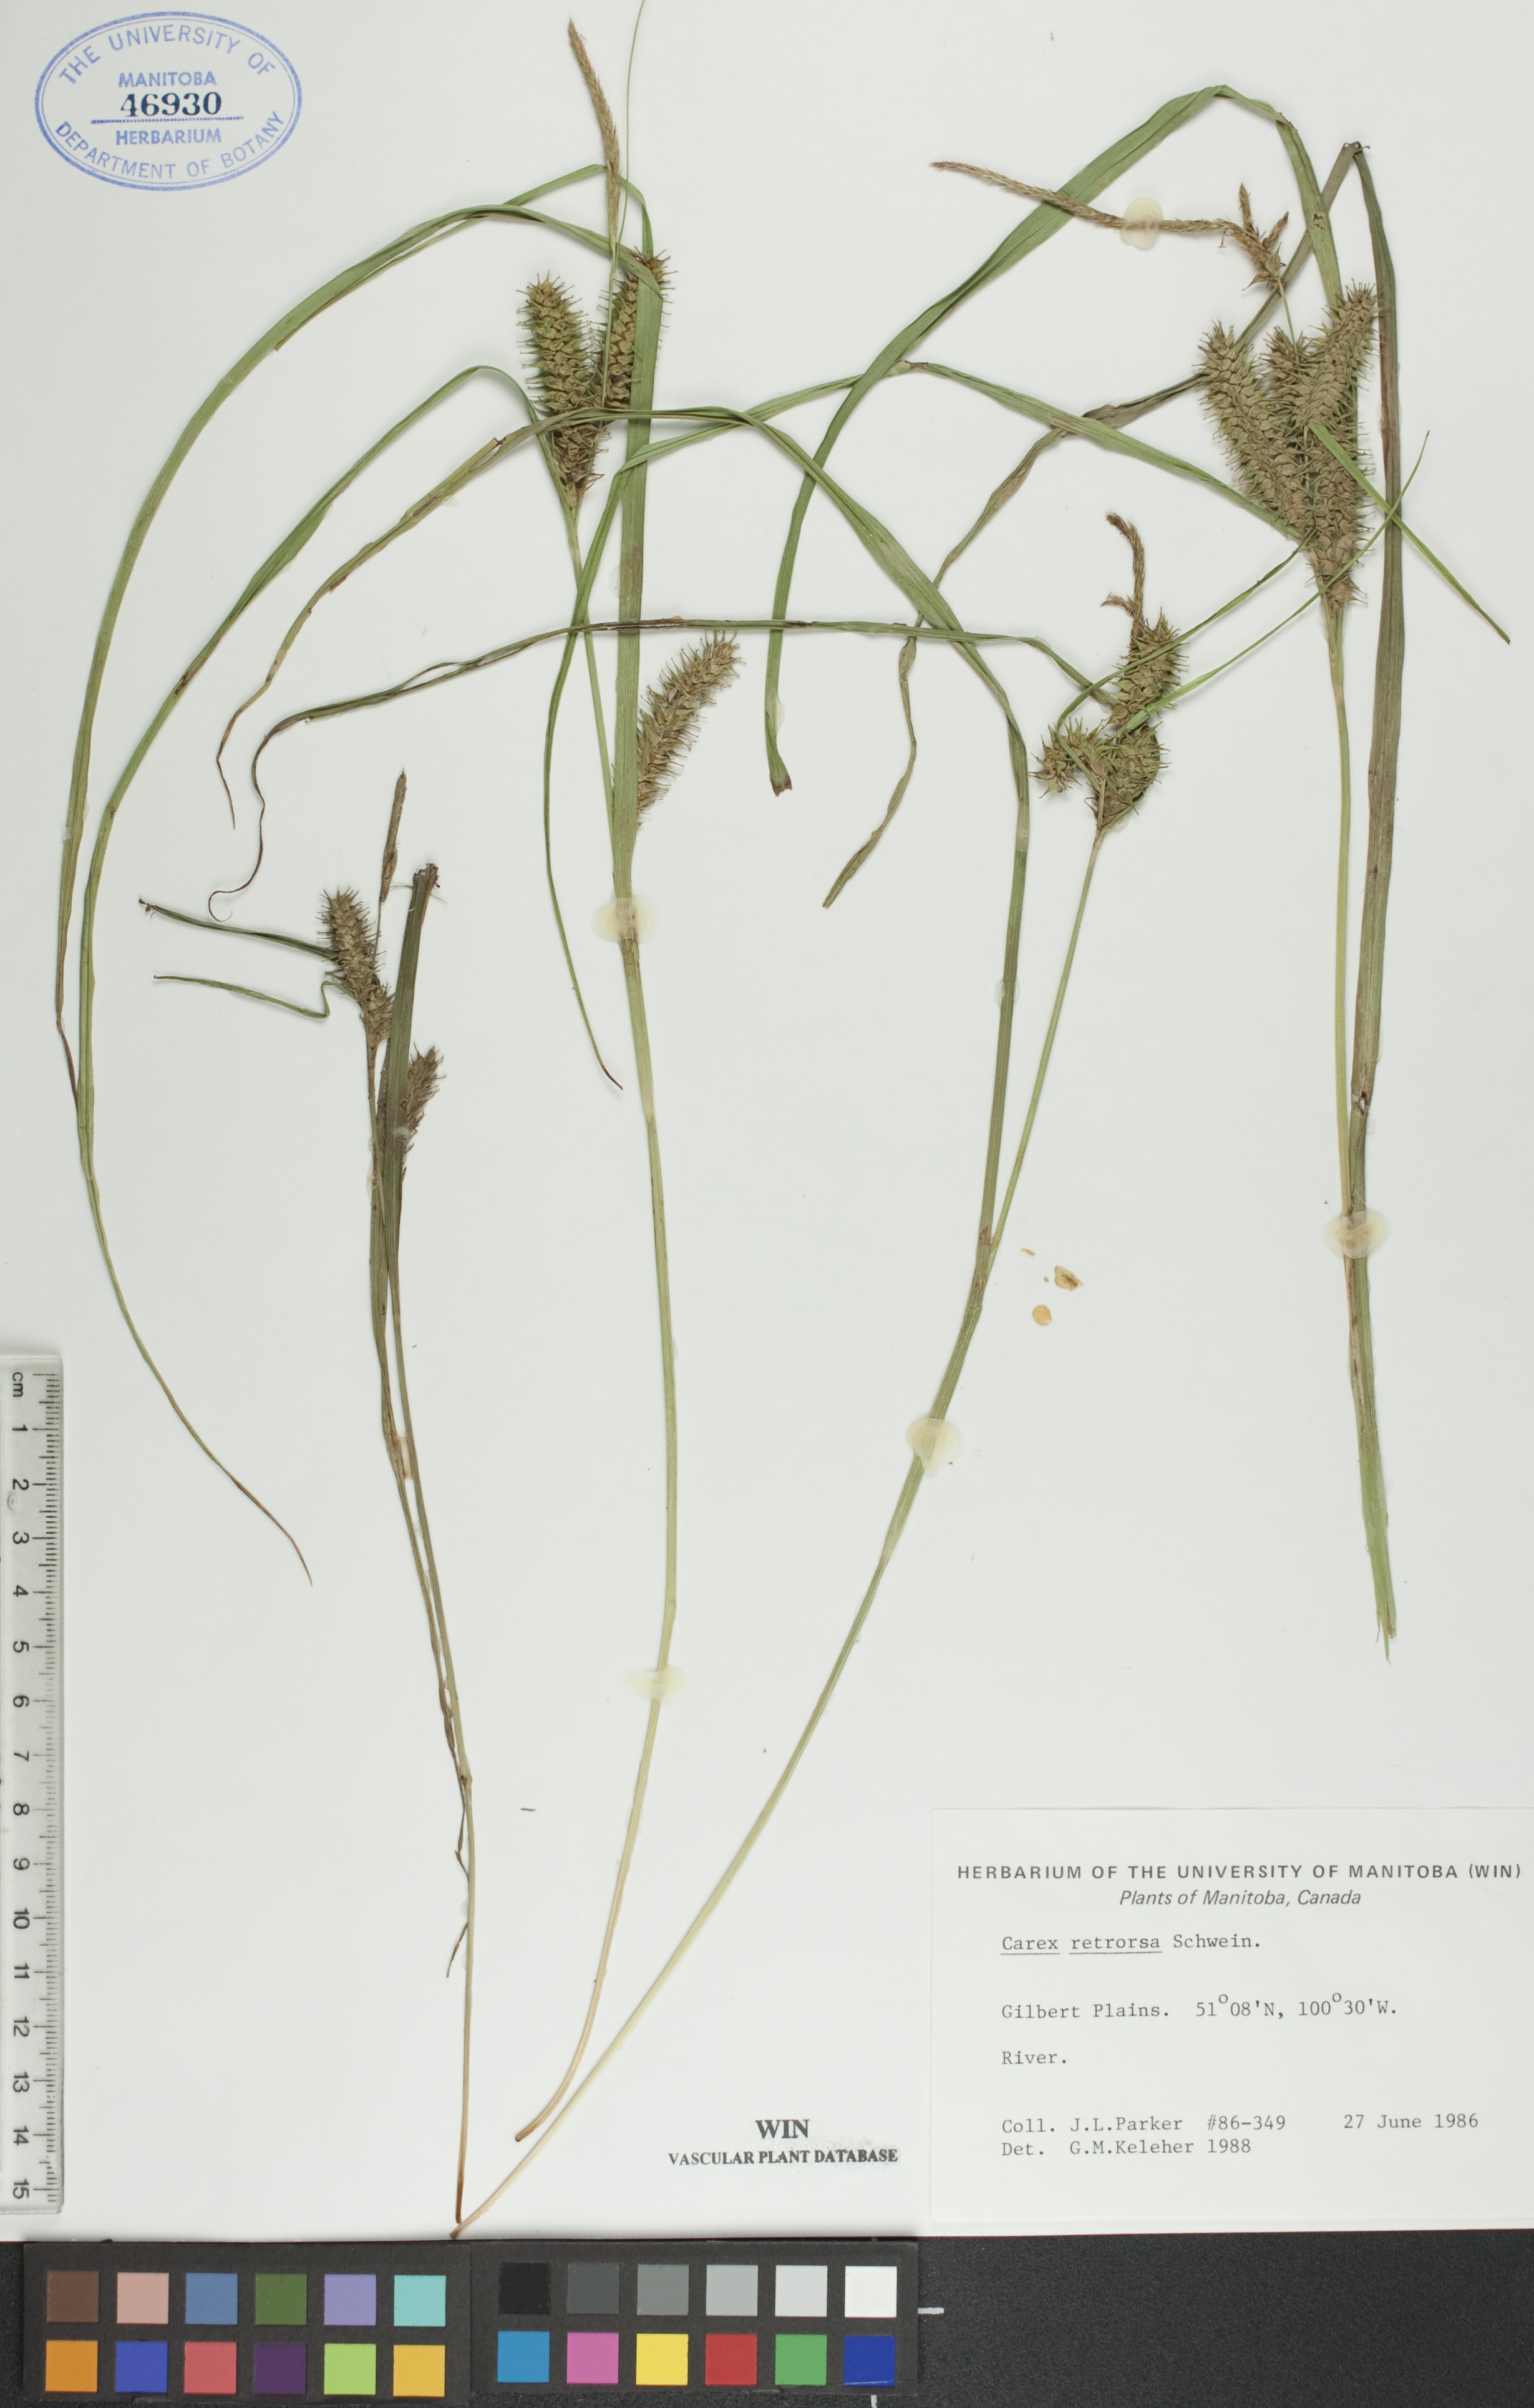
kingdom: Plantae
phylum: Tracheophyta
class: Liliopsida
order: Poales
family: Cyperaceae
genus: Carex
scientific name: Carex retrorsa
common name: Knot-sheath sedge
